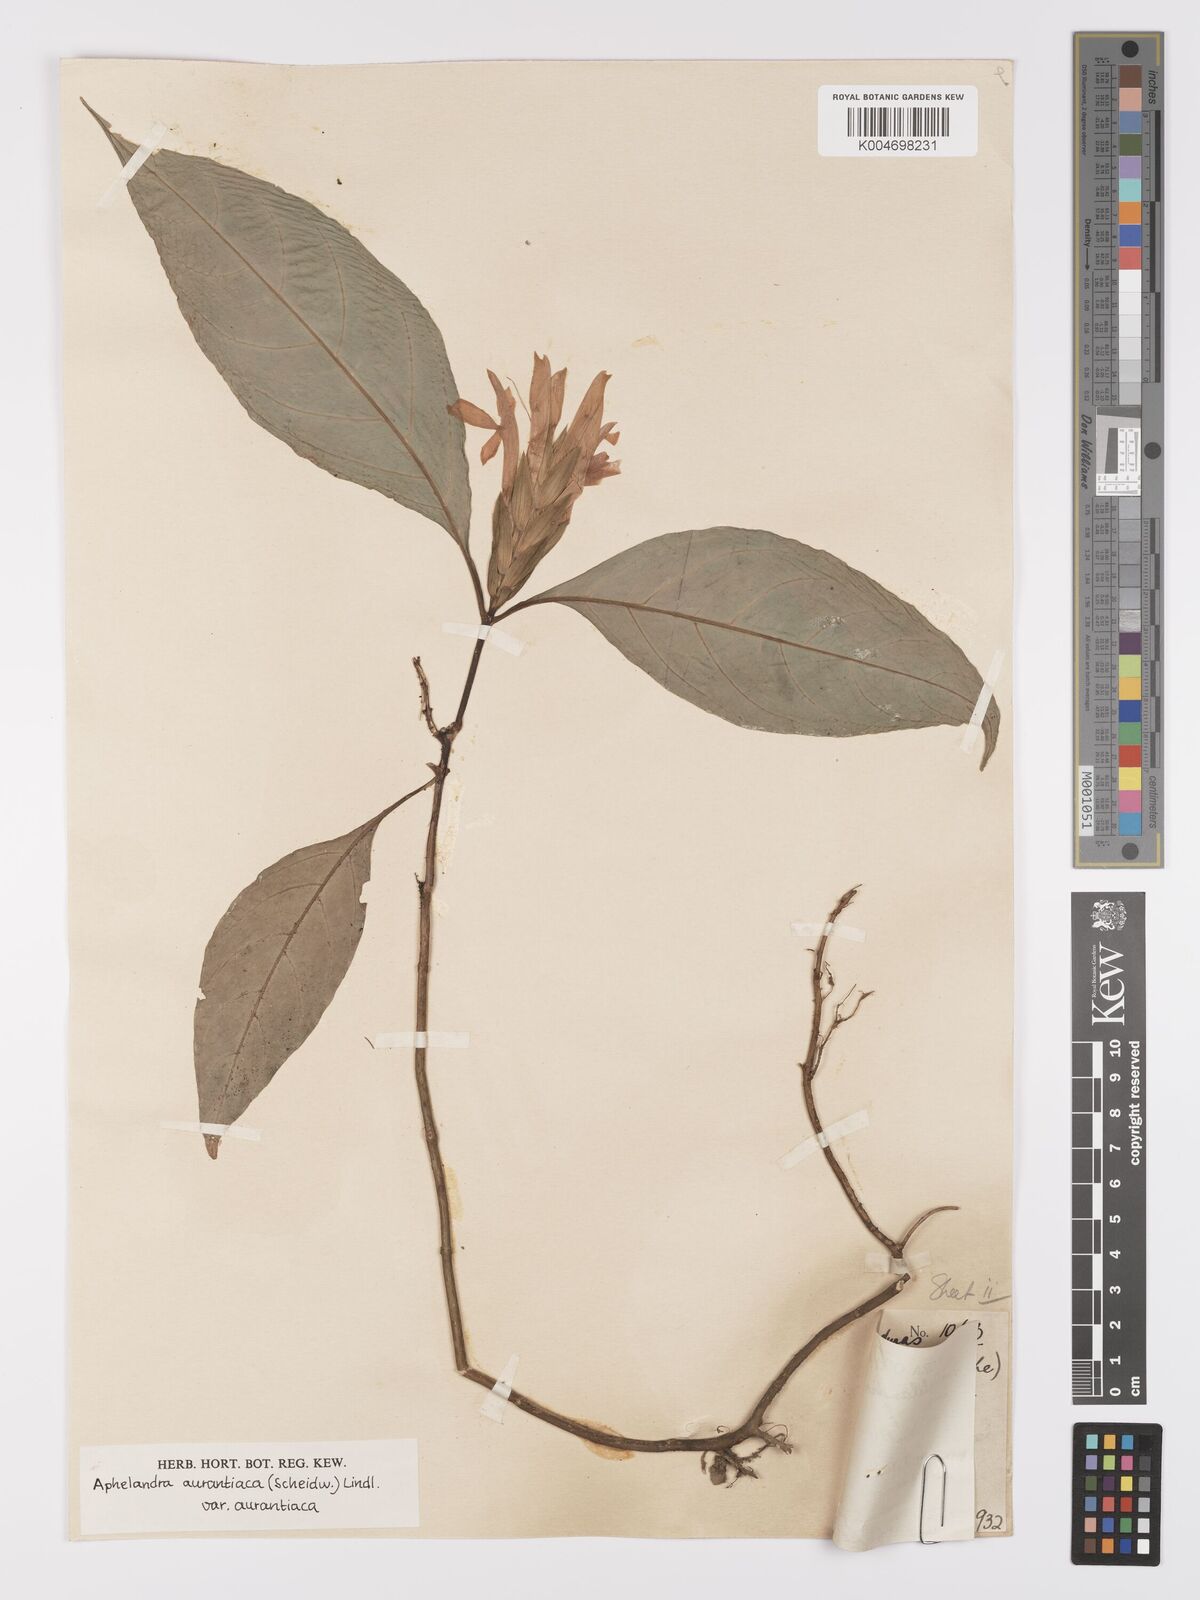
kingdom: Plantae
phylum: Tracheophyta
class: Magnoliopsida
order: Lamiales
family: Acanthaceae
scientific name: Acanthaceae
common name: Acanthaceae
